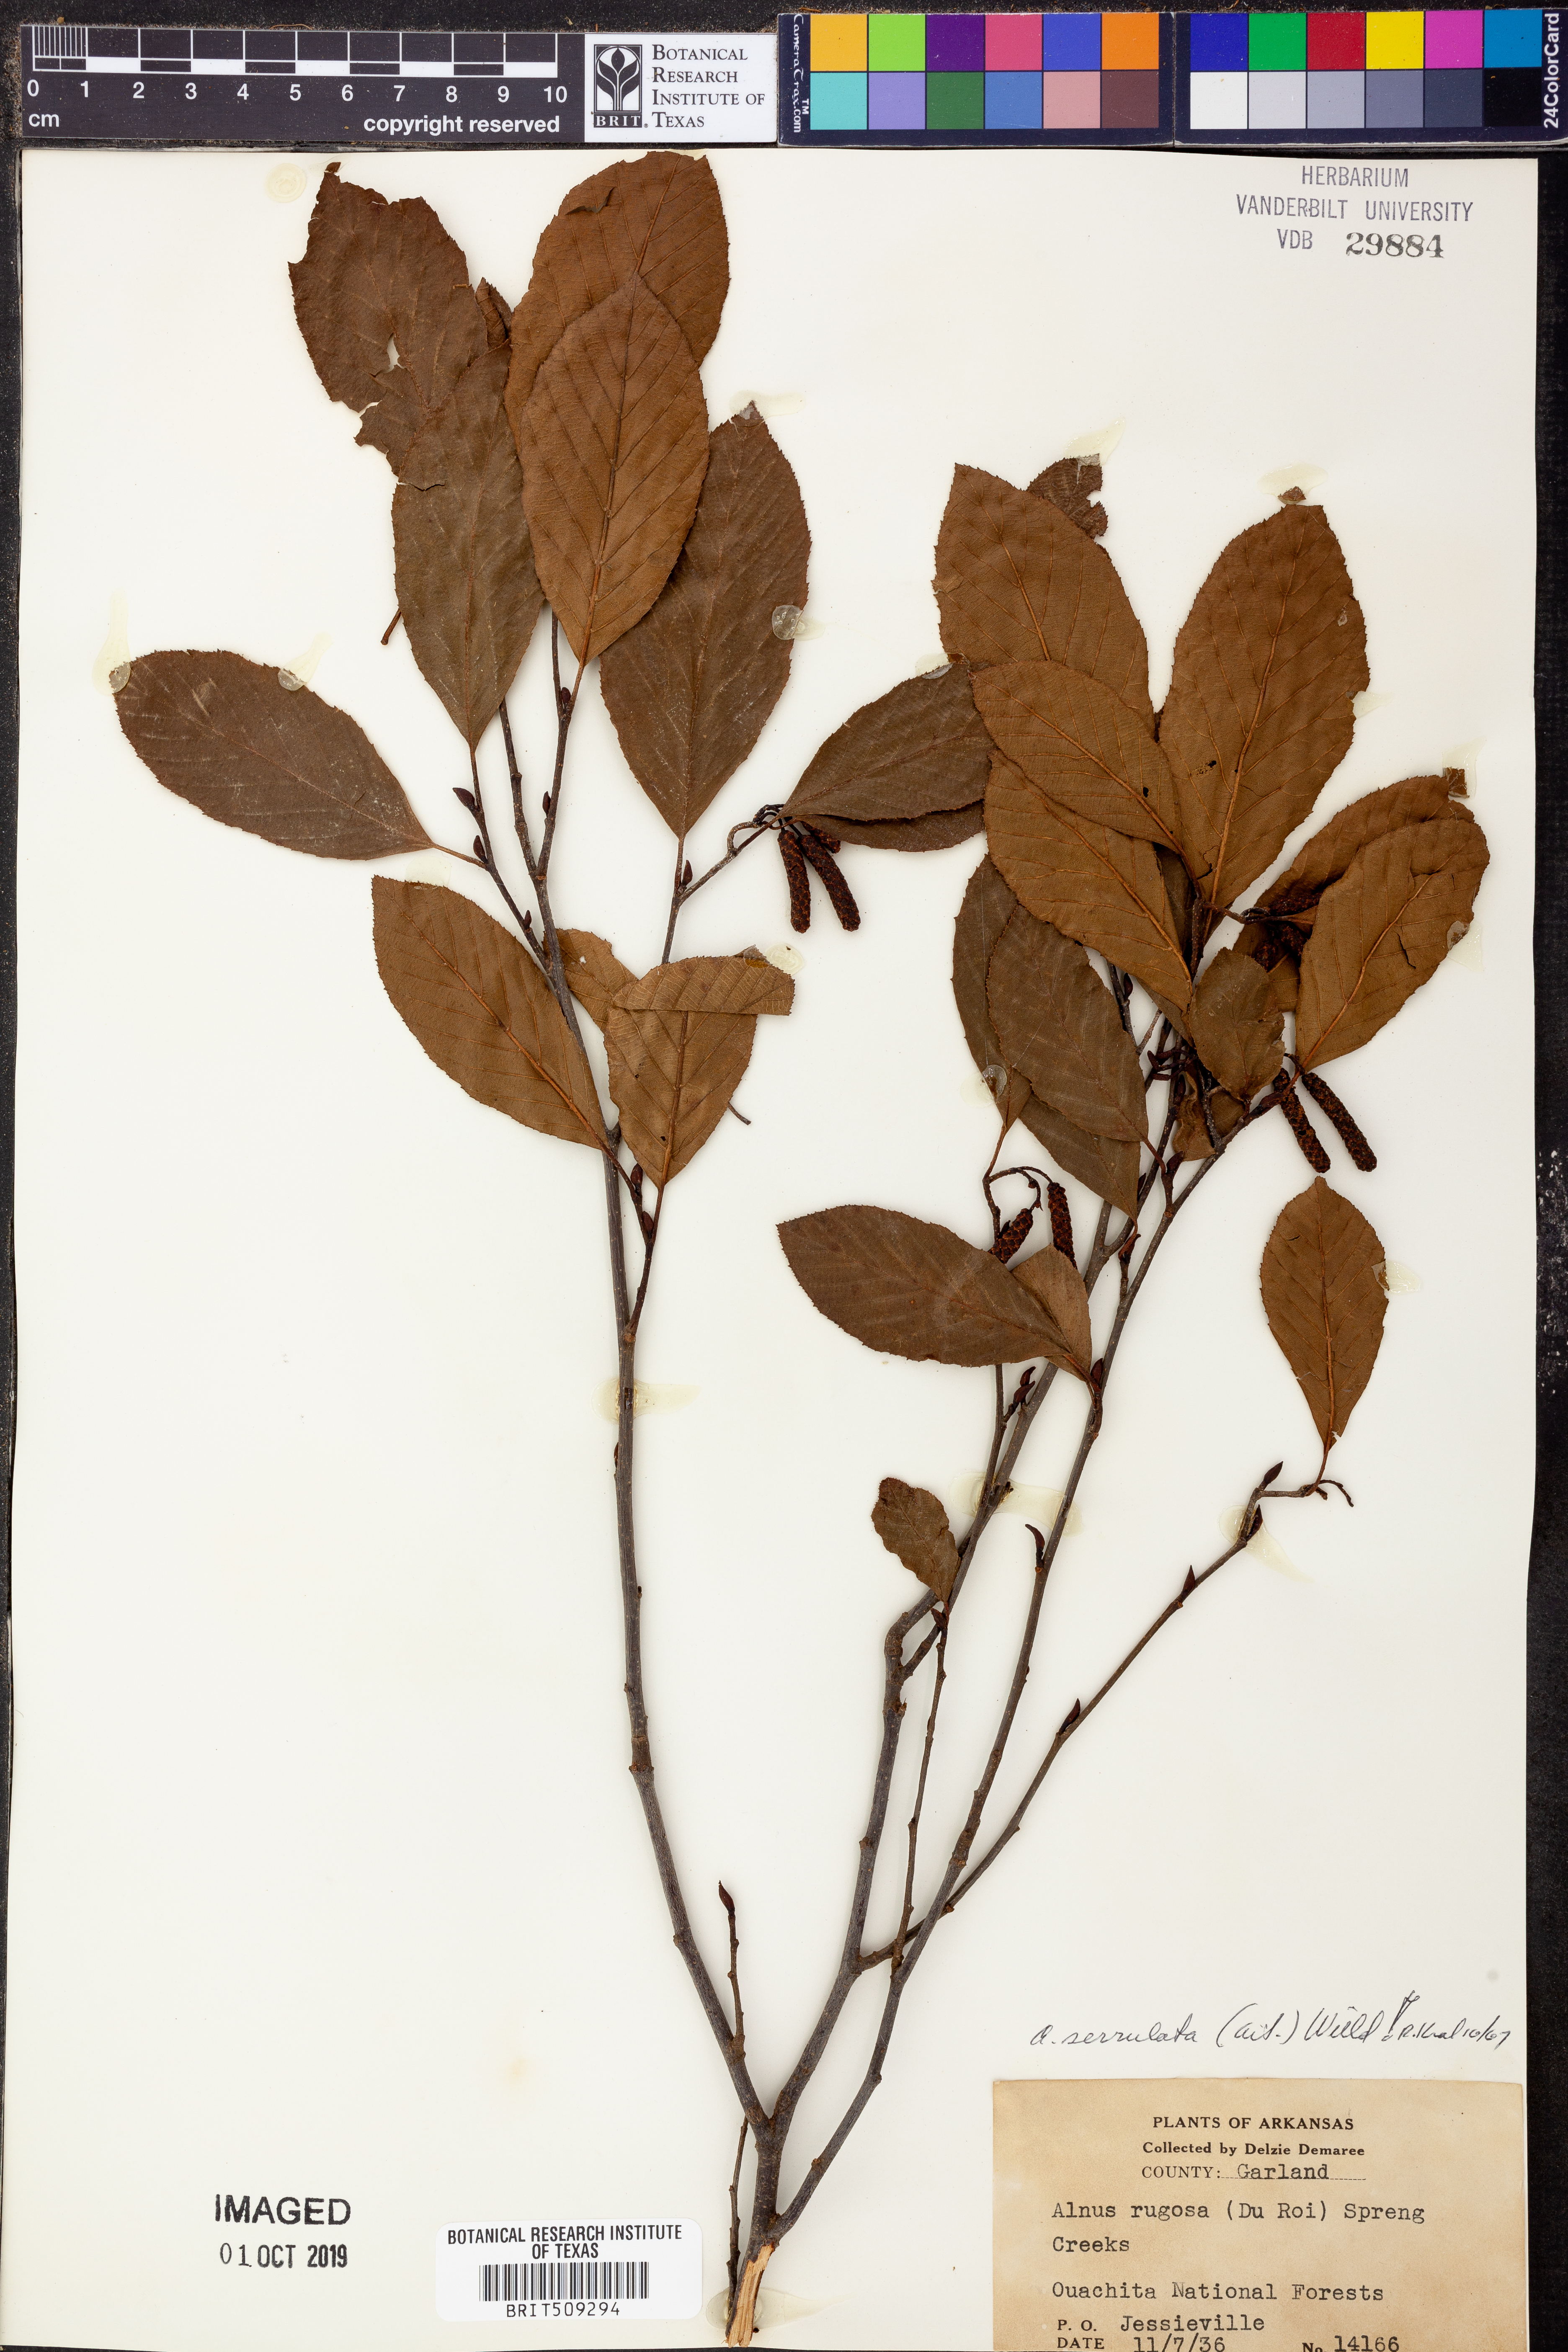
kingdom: Plantae
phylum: Tracheophyta
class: Magnoliopsida
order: Fagales
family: Betulaceae
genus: Alnus
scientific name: Alnus serrulata
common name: Hazel alder
